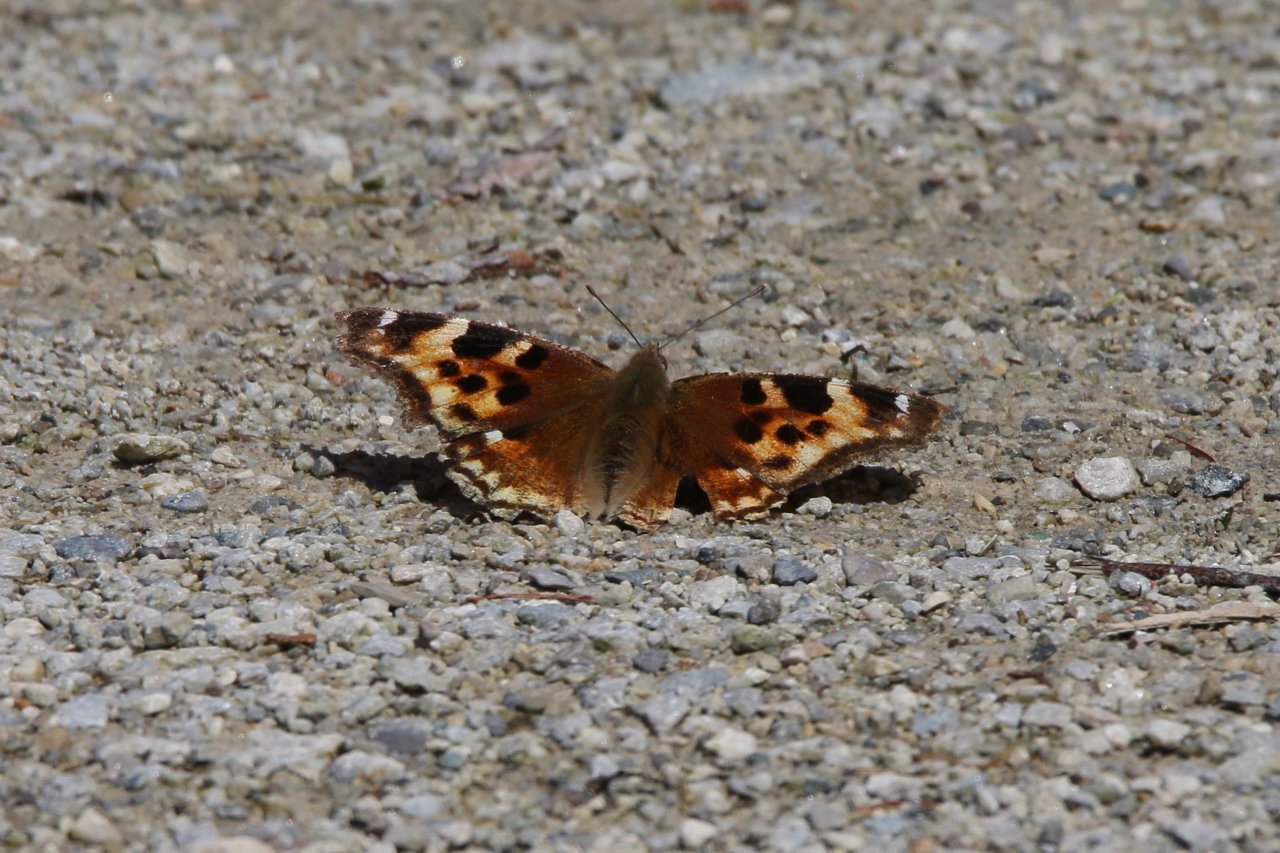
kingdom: Animalia
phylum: Arthropoda
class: Insecta
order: Lepidoptera
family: Nymphalidae
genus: Polygonia
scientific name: Polygonia vaualbum
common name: Compton Tortoiseshell
